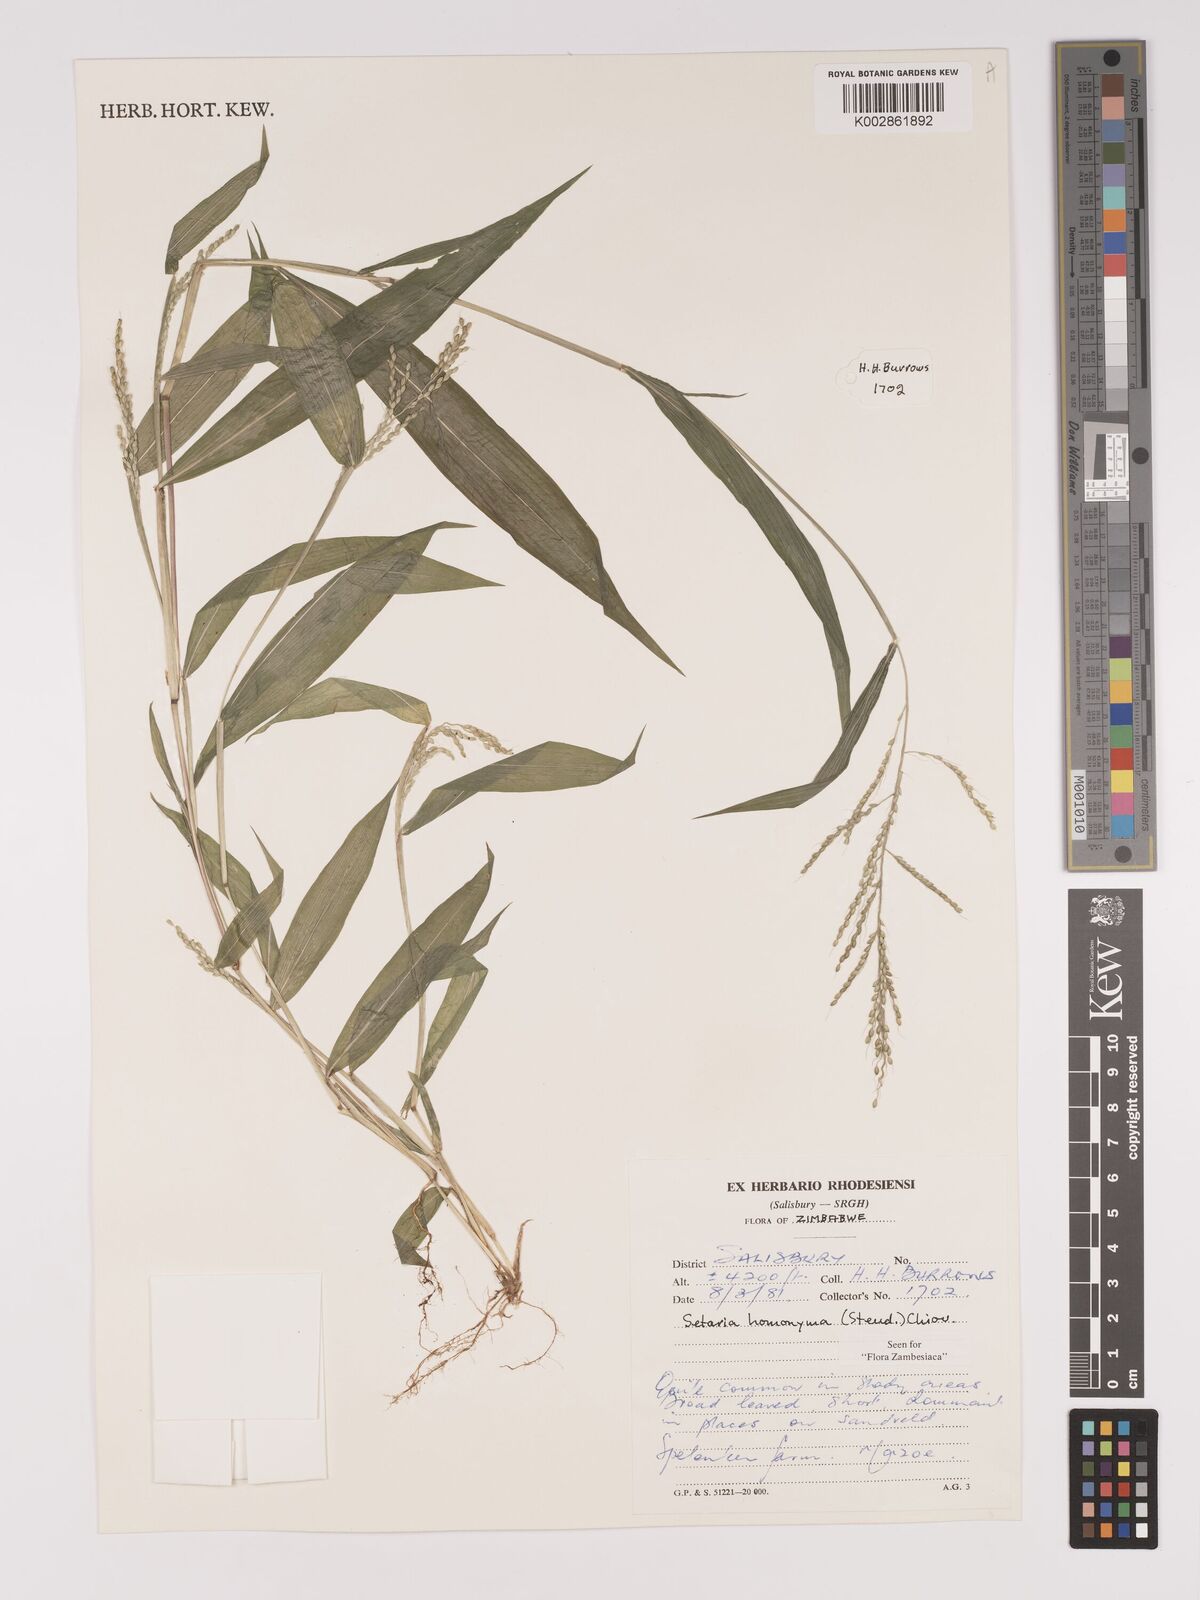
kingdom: Plantae
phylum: Tracheophyta
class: Liliopsida
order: Poales
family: Poaceae
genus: Setaria
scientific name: Setaria homonyma
